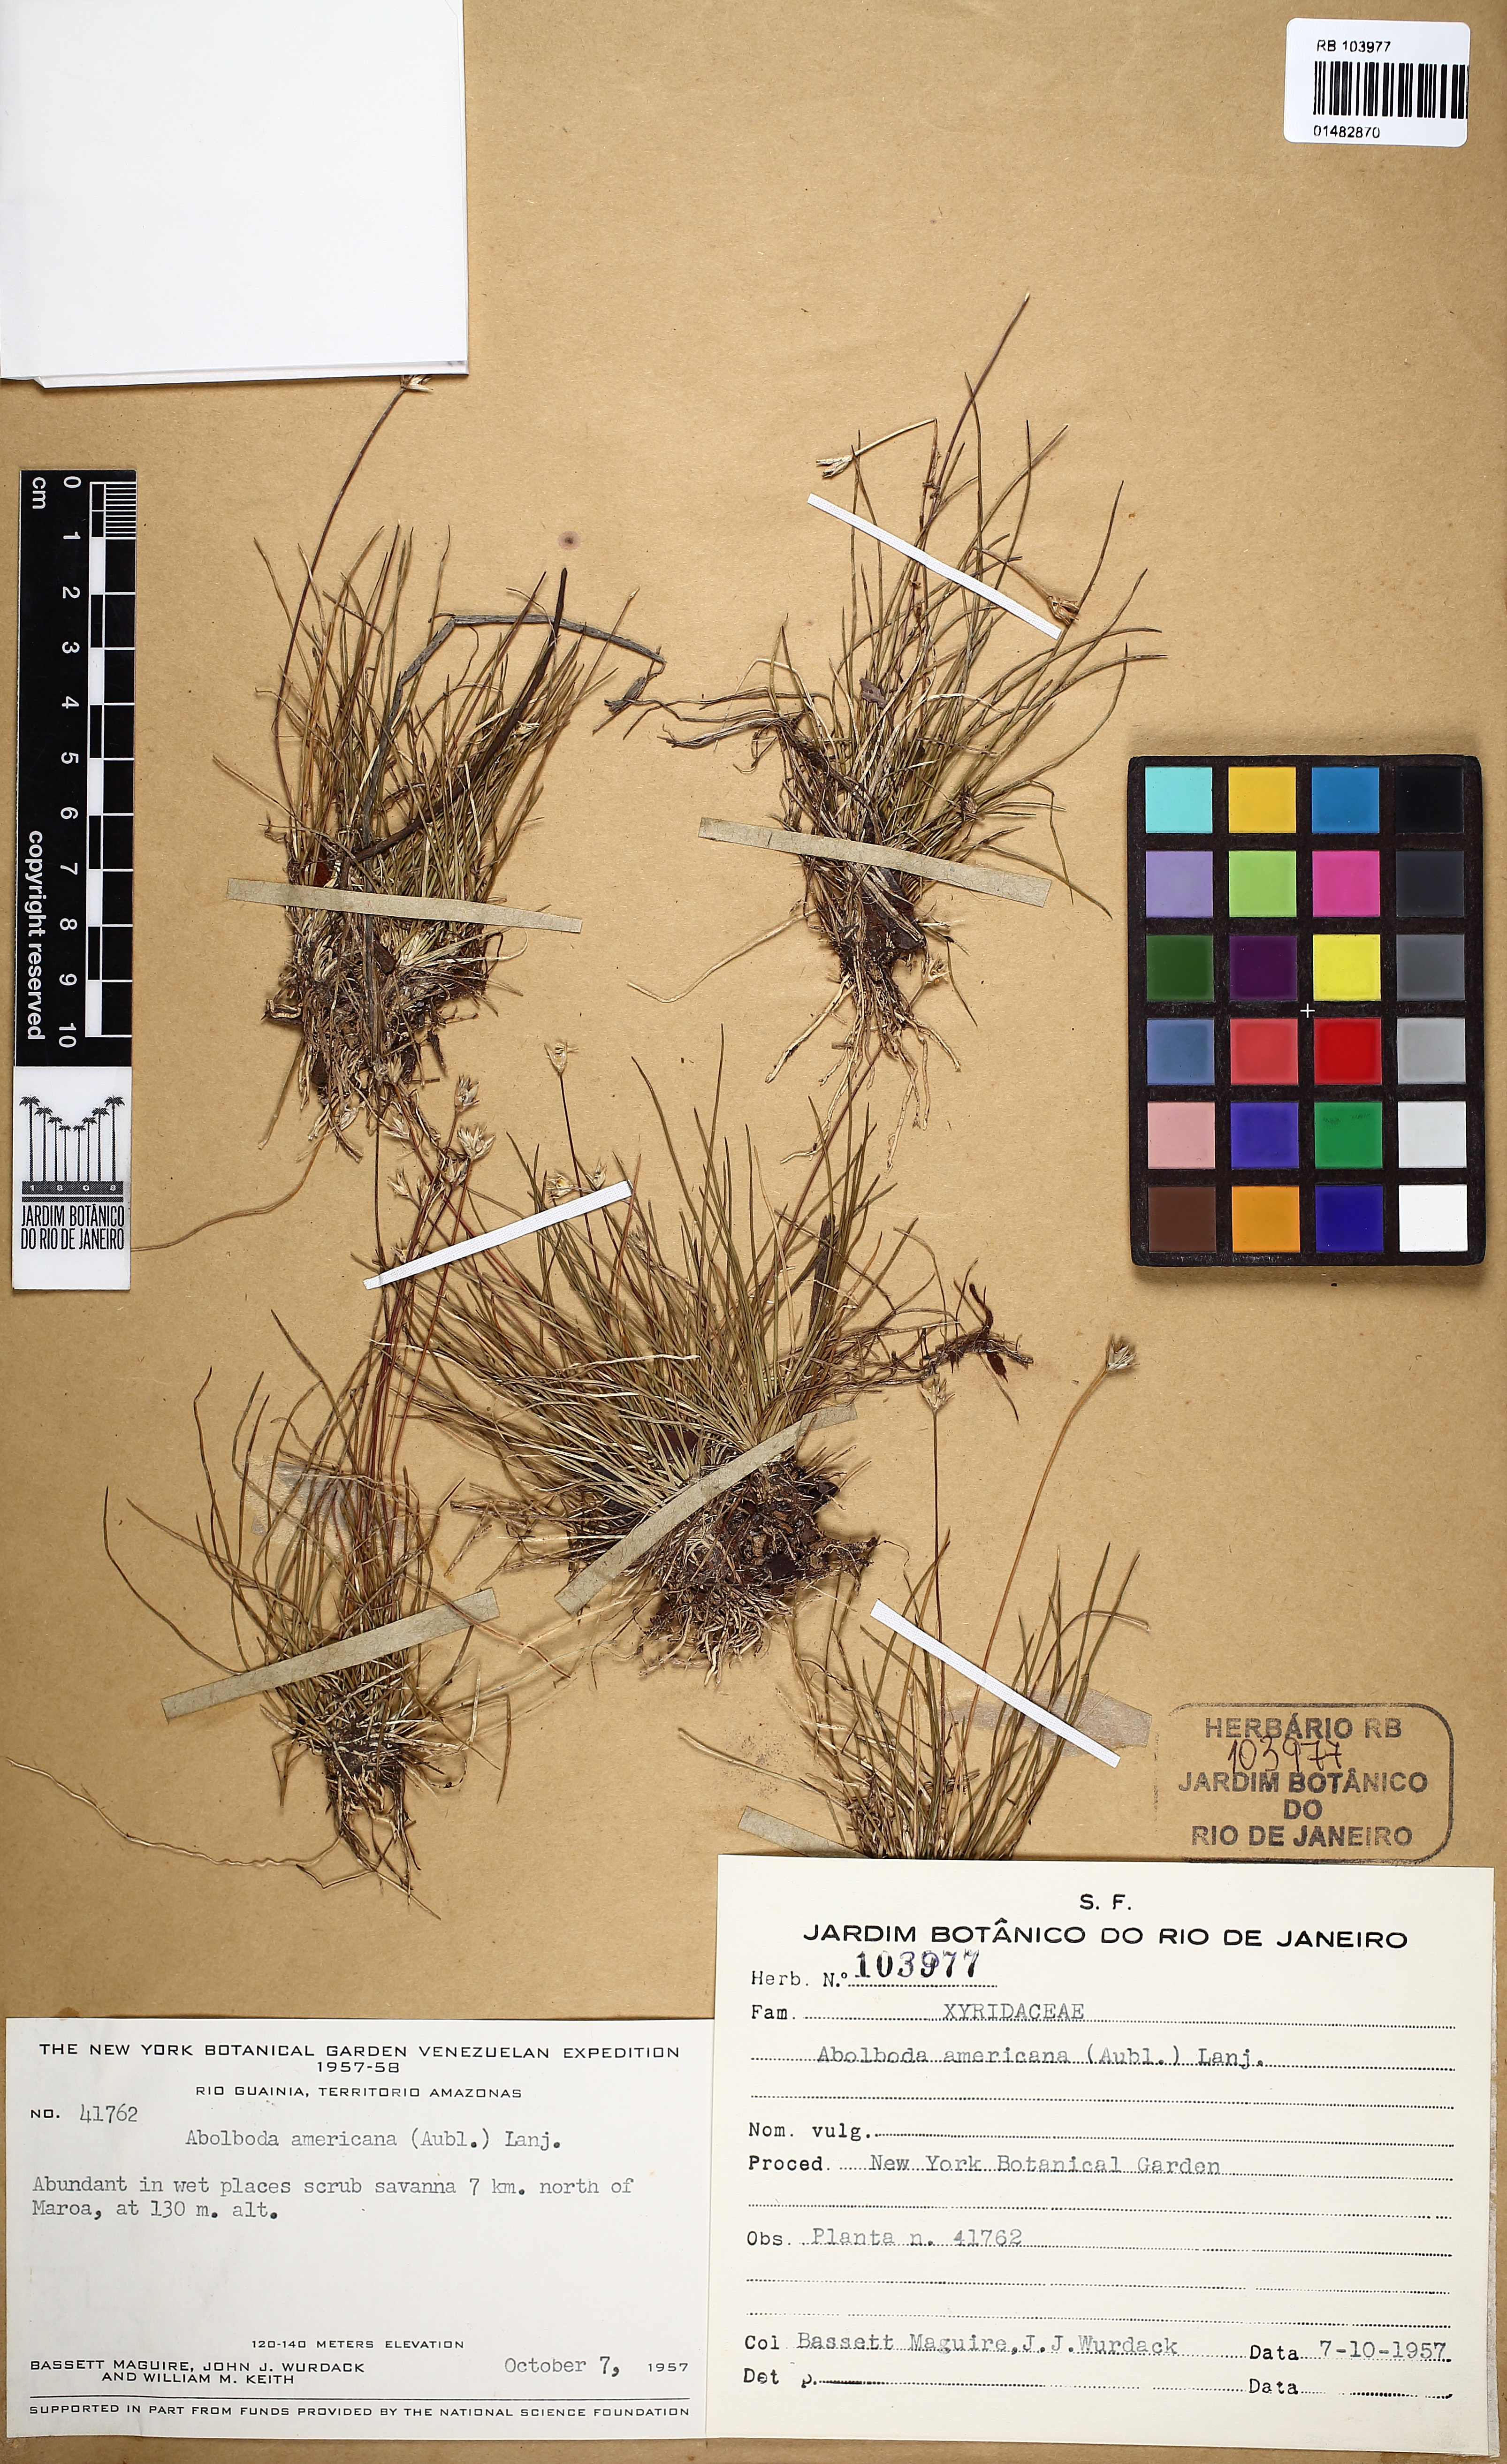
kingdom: Plantae
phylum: Tracheophyta
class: Liliopsida
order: Poales
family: Xyridaceae
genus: Abolboda
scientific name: Abolboda americana
